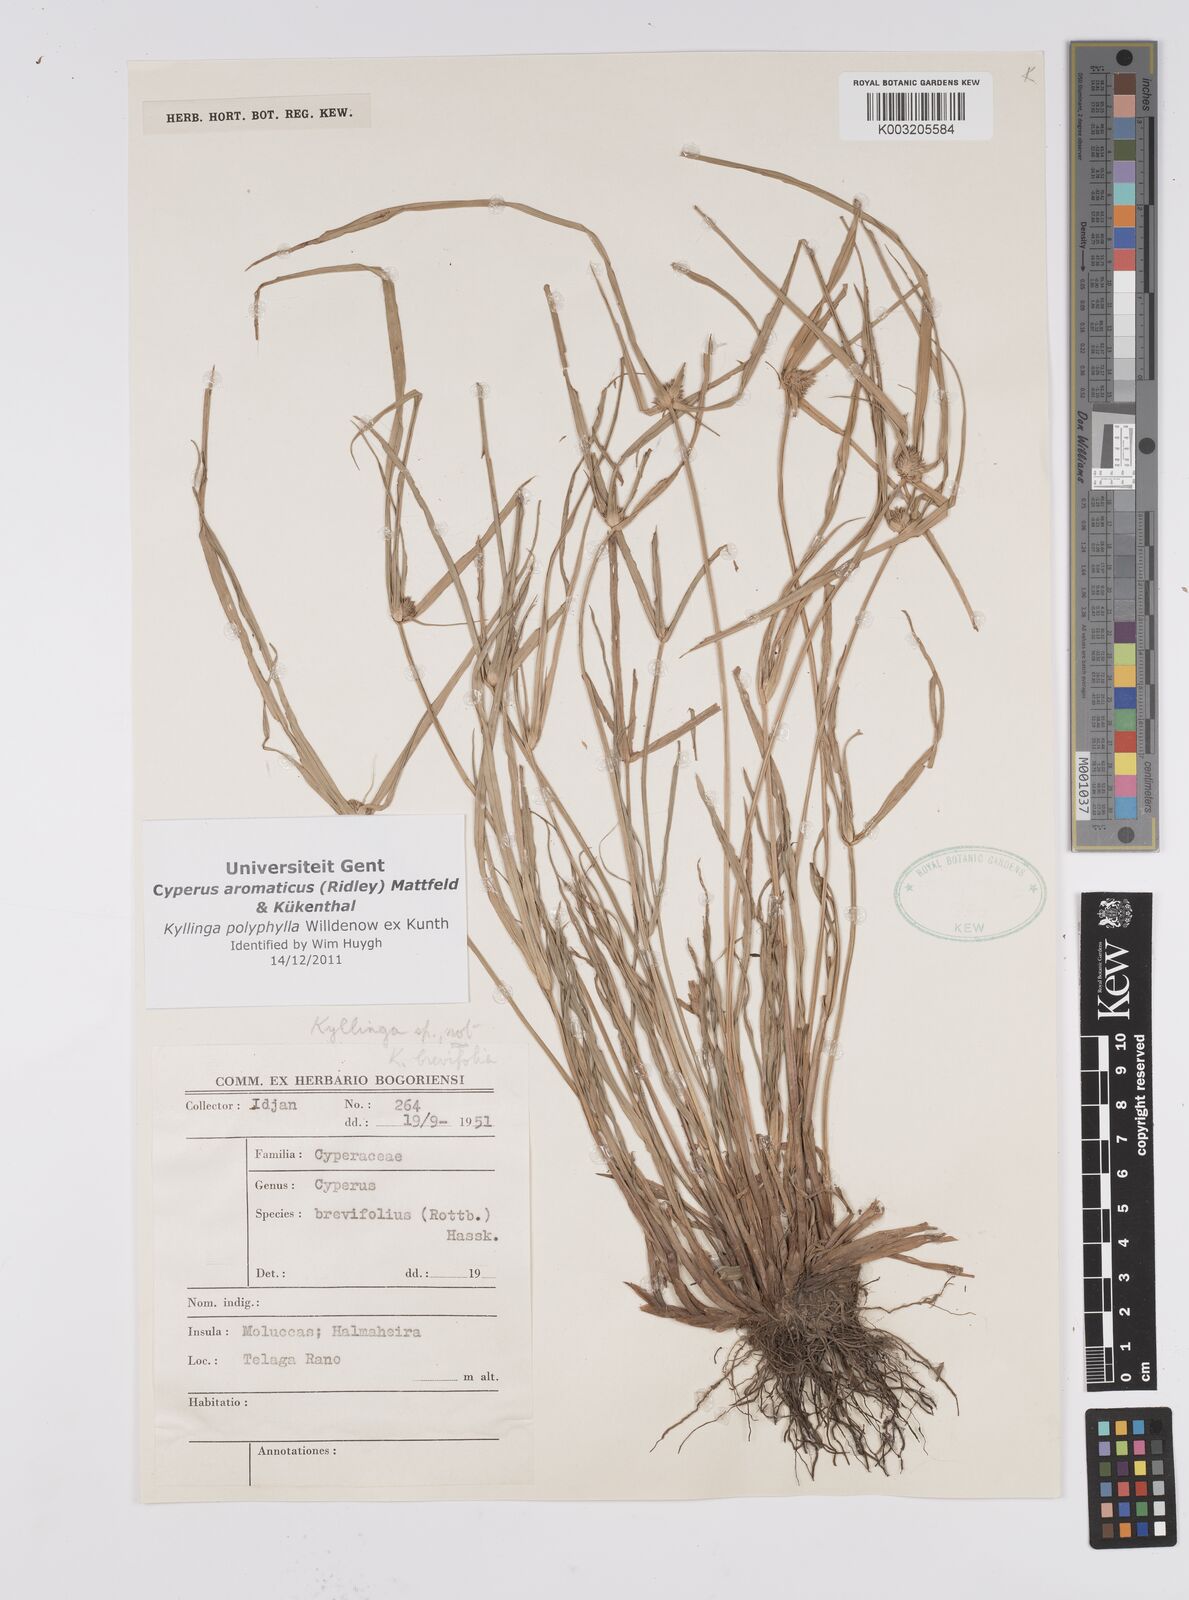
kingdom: Plantae
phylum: Tracheophyta
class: Liliopsida
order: Poales
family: Cyperaceae
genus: Cyperus
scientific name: Cyperus
